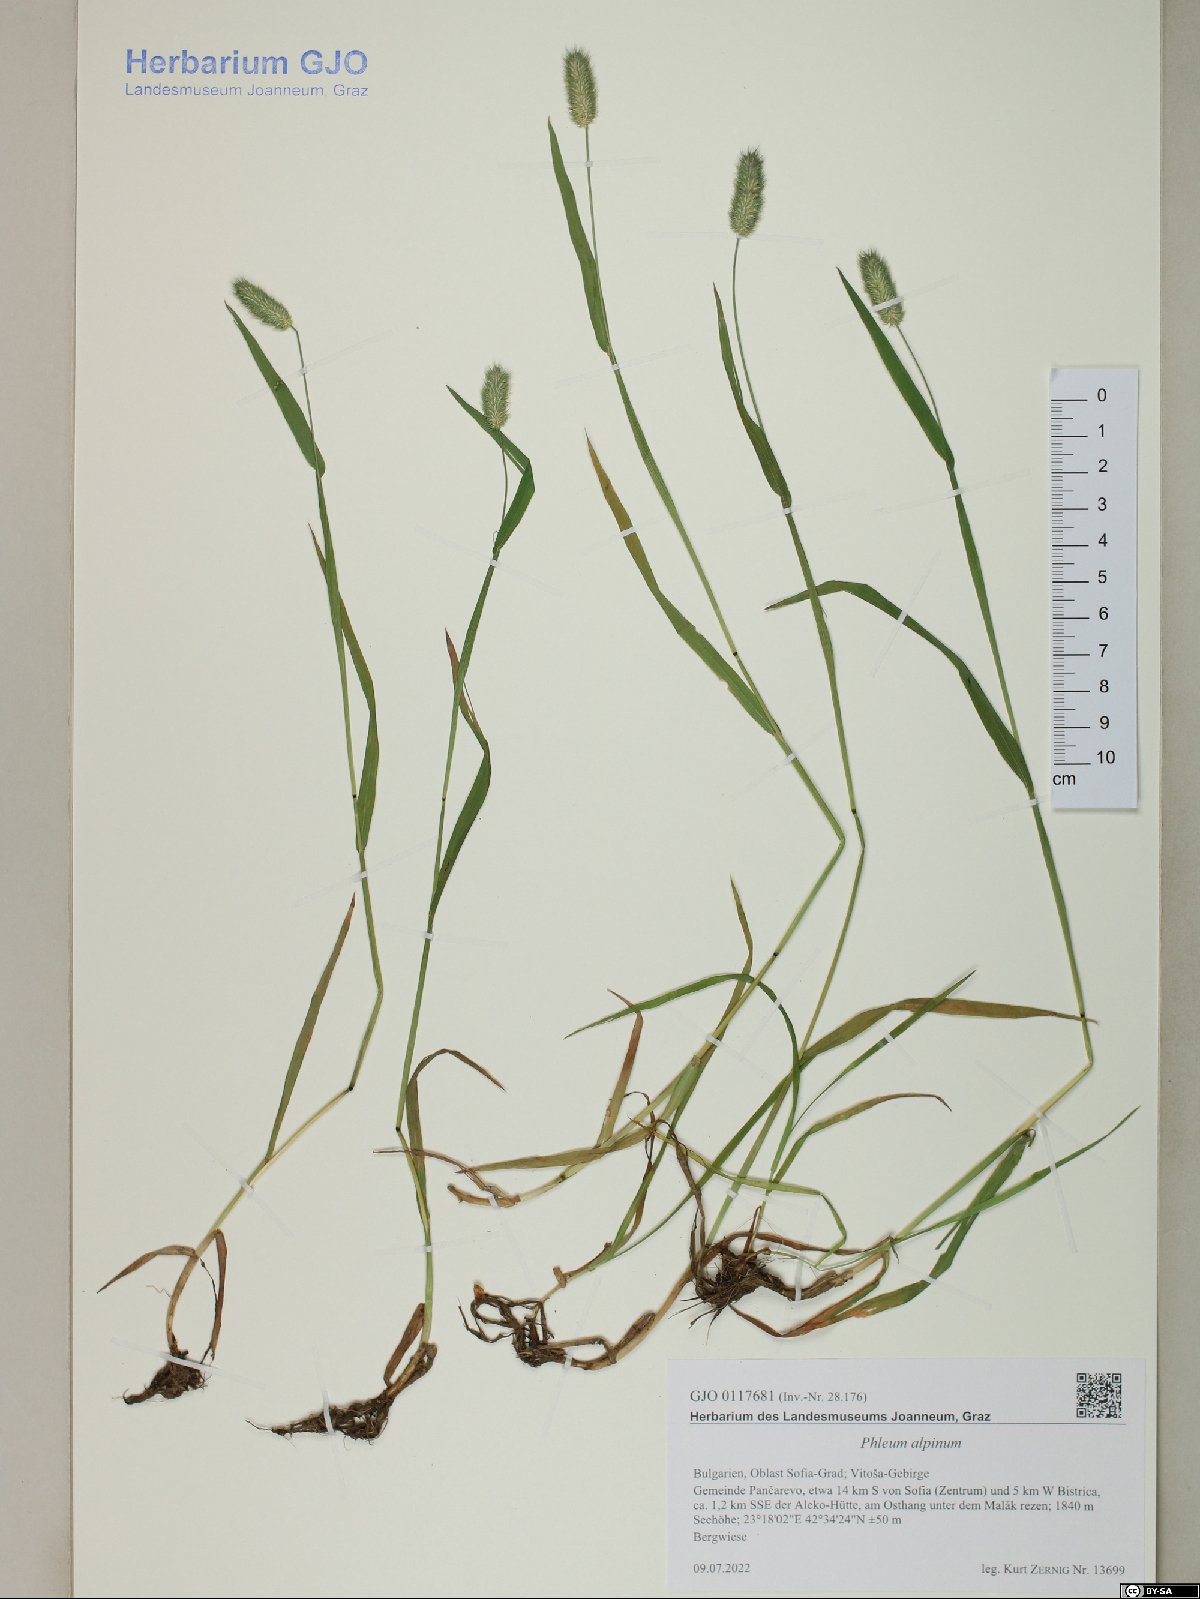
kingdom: Plantae
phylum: Tracheophyta
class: Liliopsida
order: Poales
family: Poaceae
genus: Phleum
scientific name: Phleum alpinum
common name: Alpine cat's-tail
